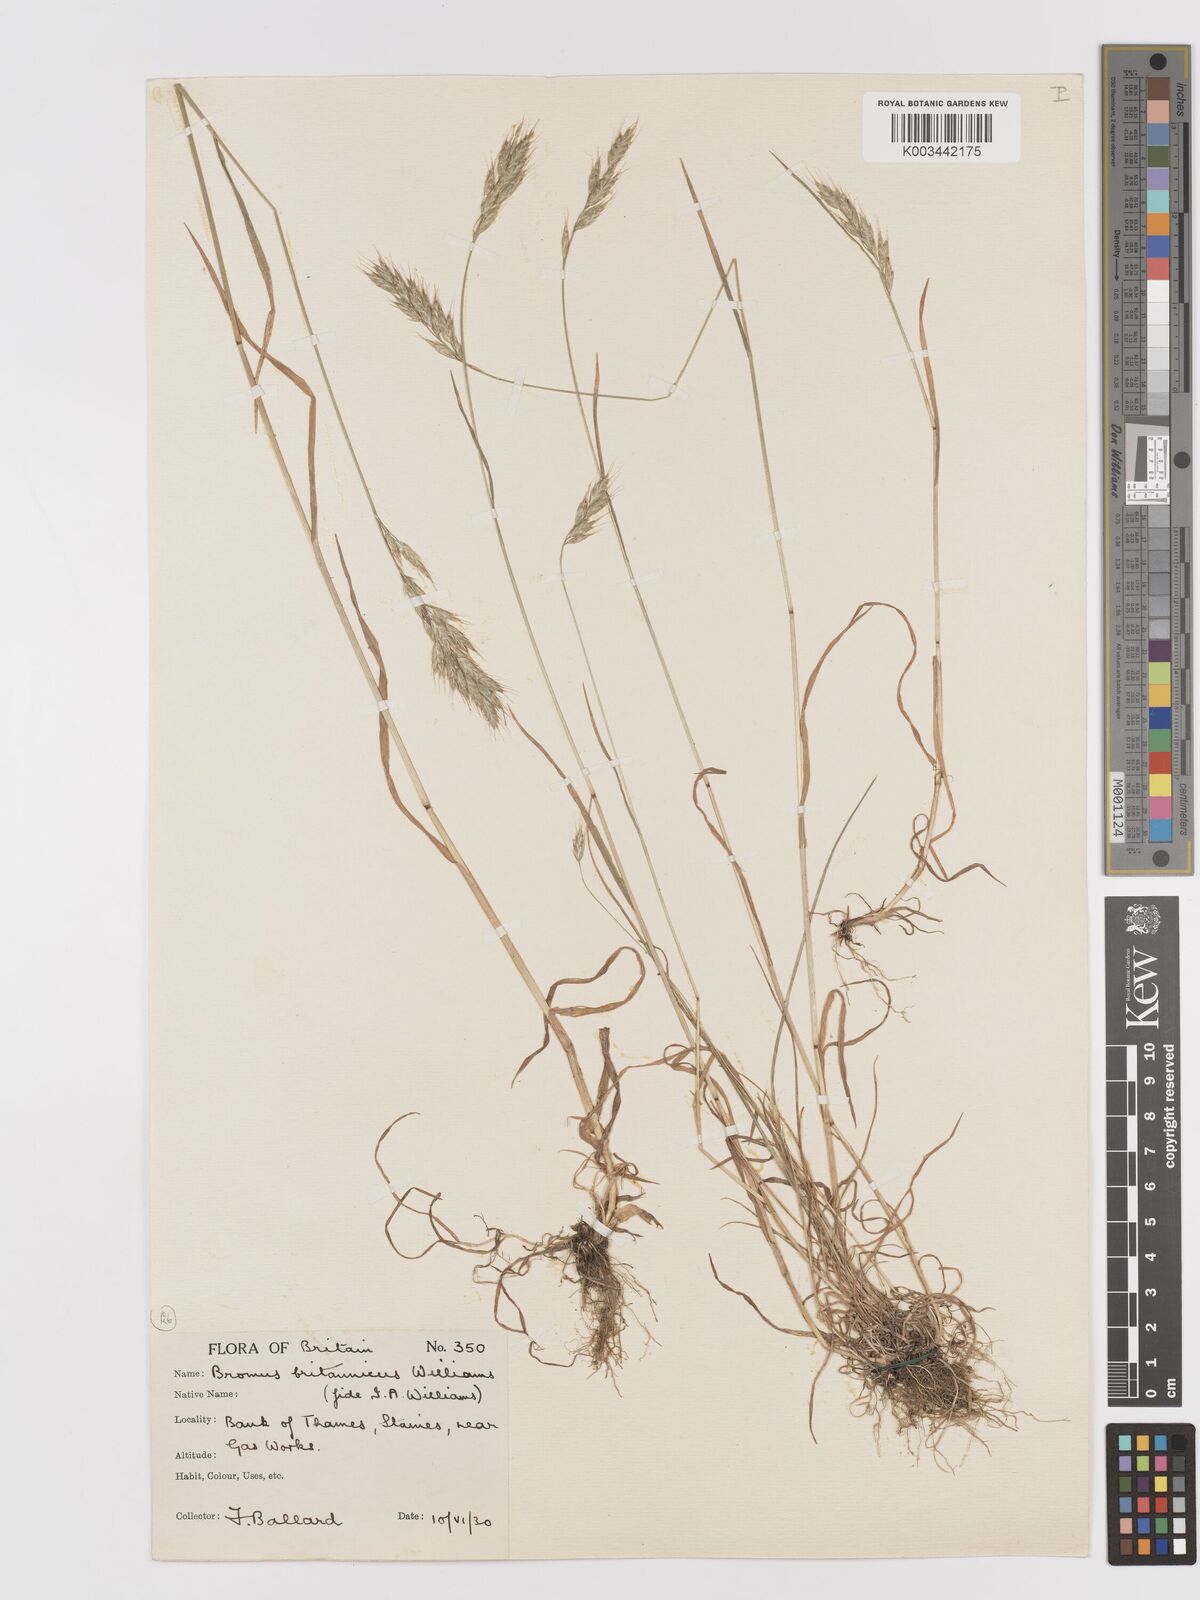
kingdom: Plantae
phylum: Tracheophyta
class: Liliopsida
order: Poales
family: Poaceae
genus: Bromus
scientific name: Bromus lepidus
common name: Slender soft-brome
